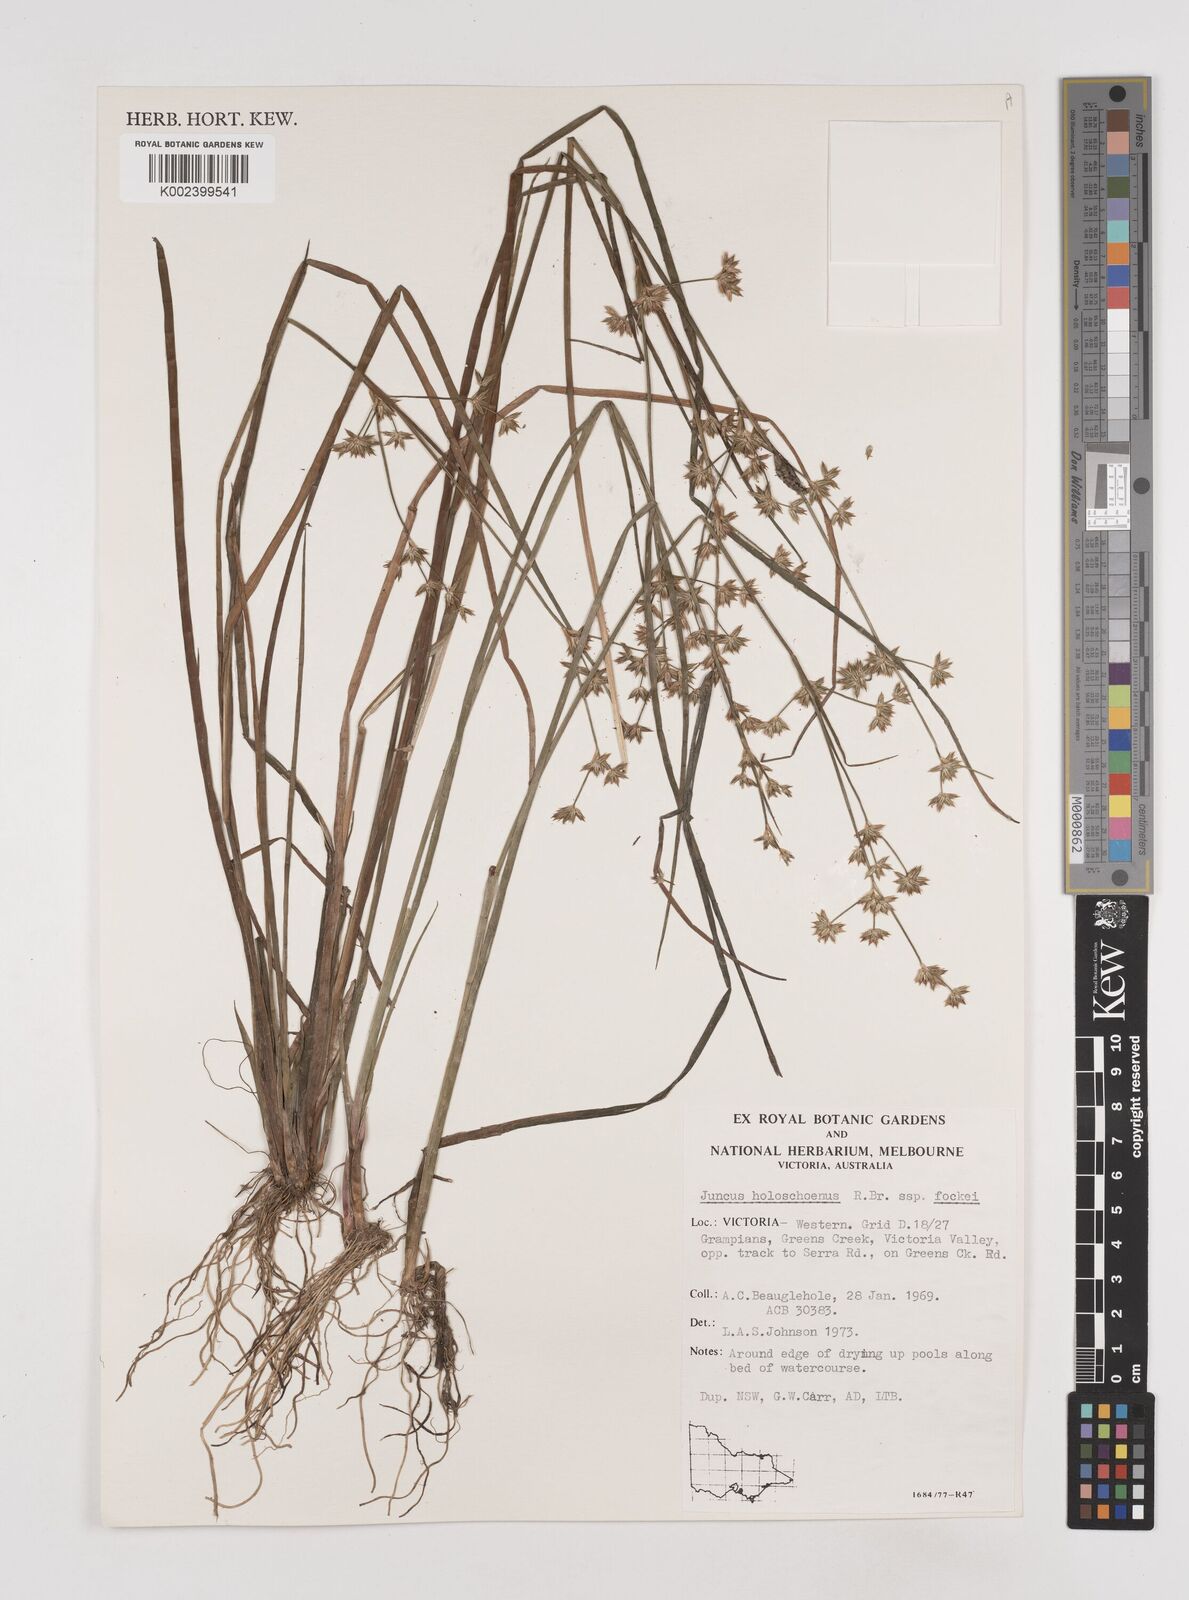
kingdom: Plantae
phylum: Tracheophyta
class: Liliopsida
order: Poales
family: Juncaceae
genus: Juncus
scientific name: Juncus holoschoenus
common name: Joint-leaf rush
